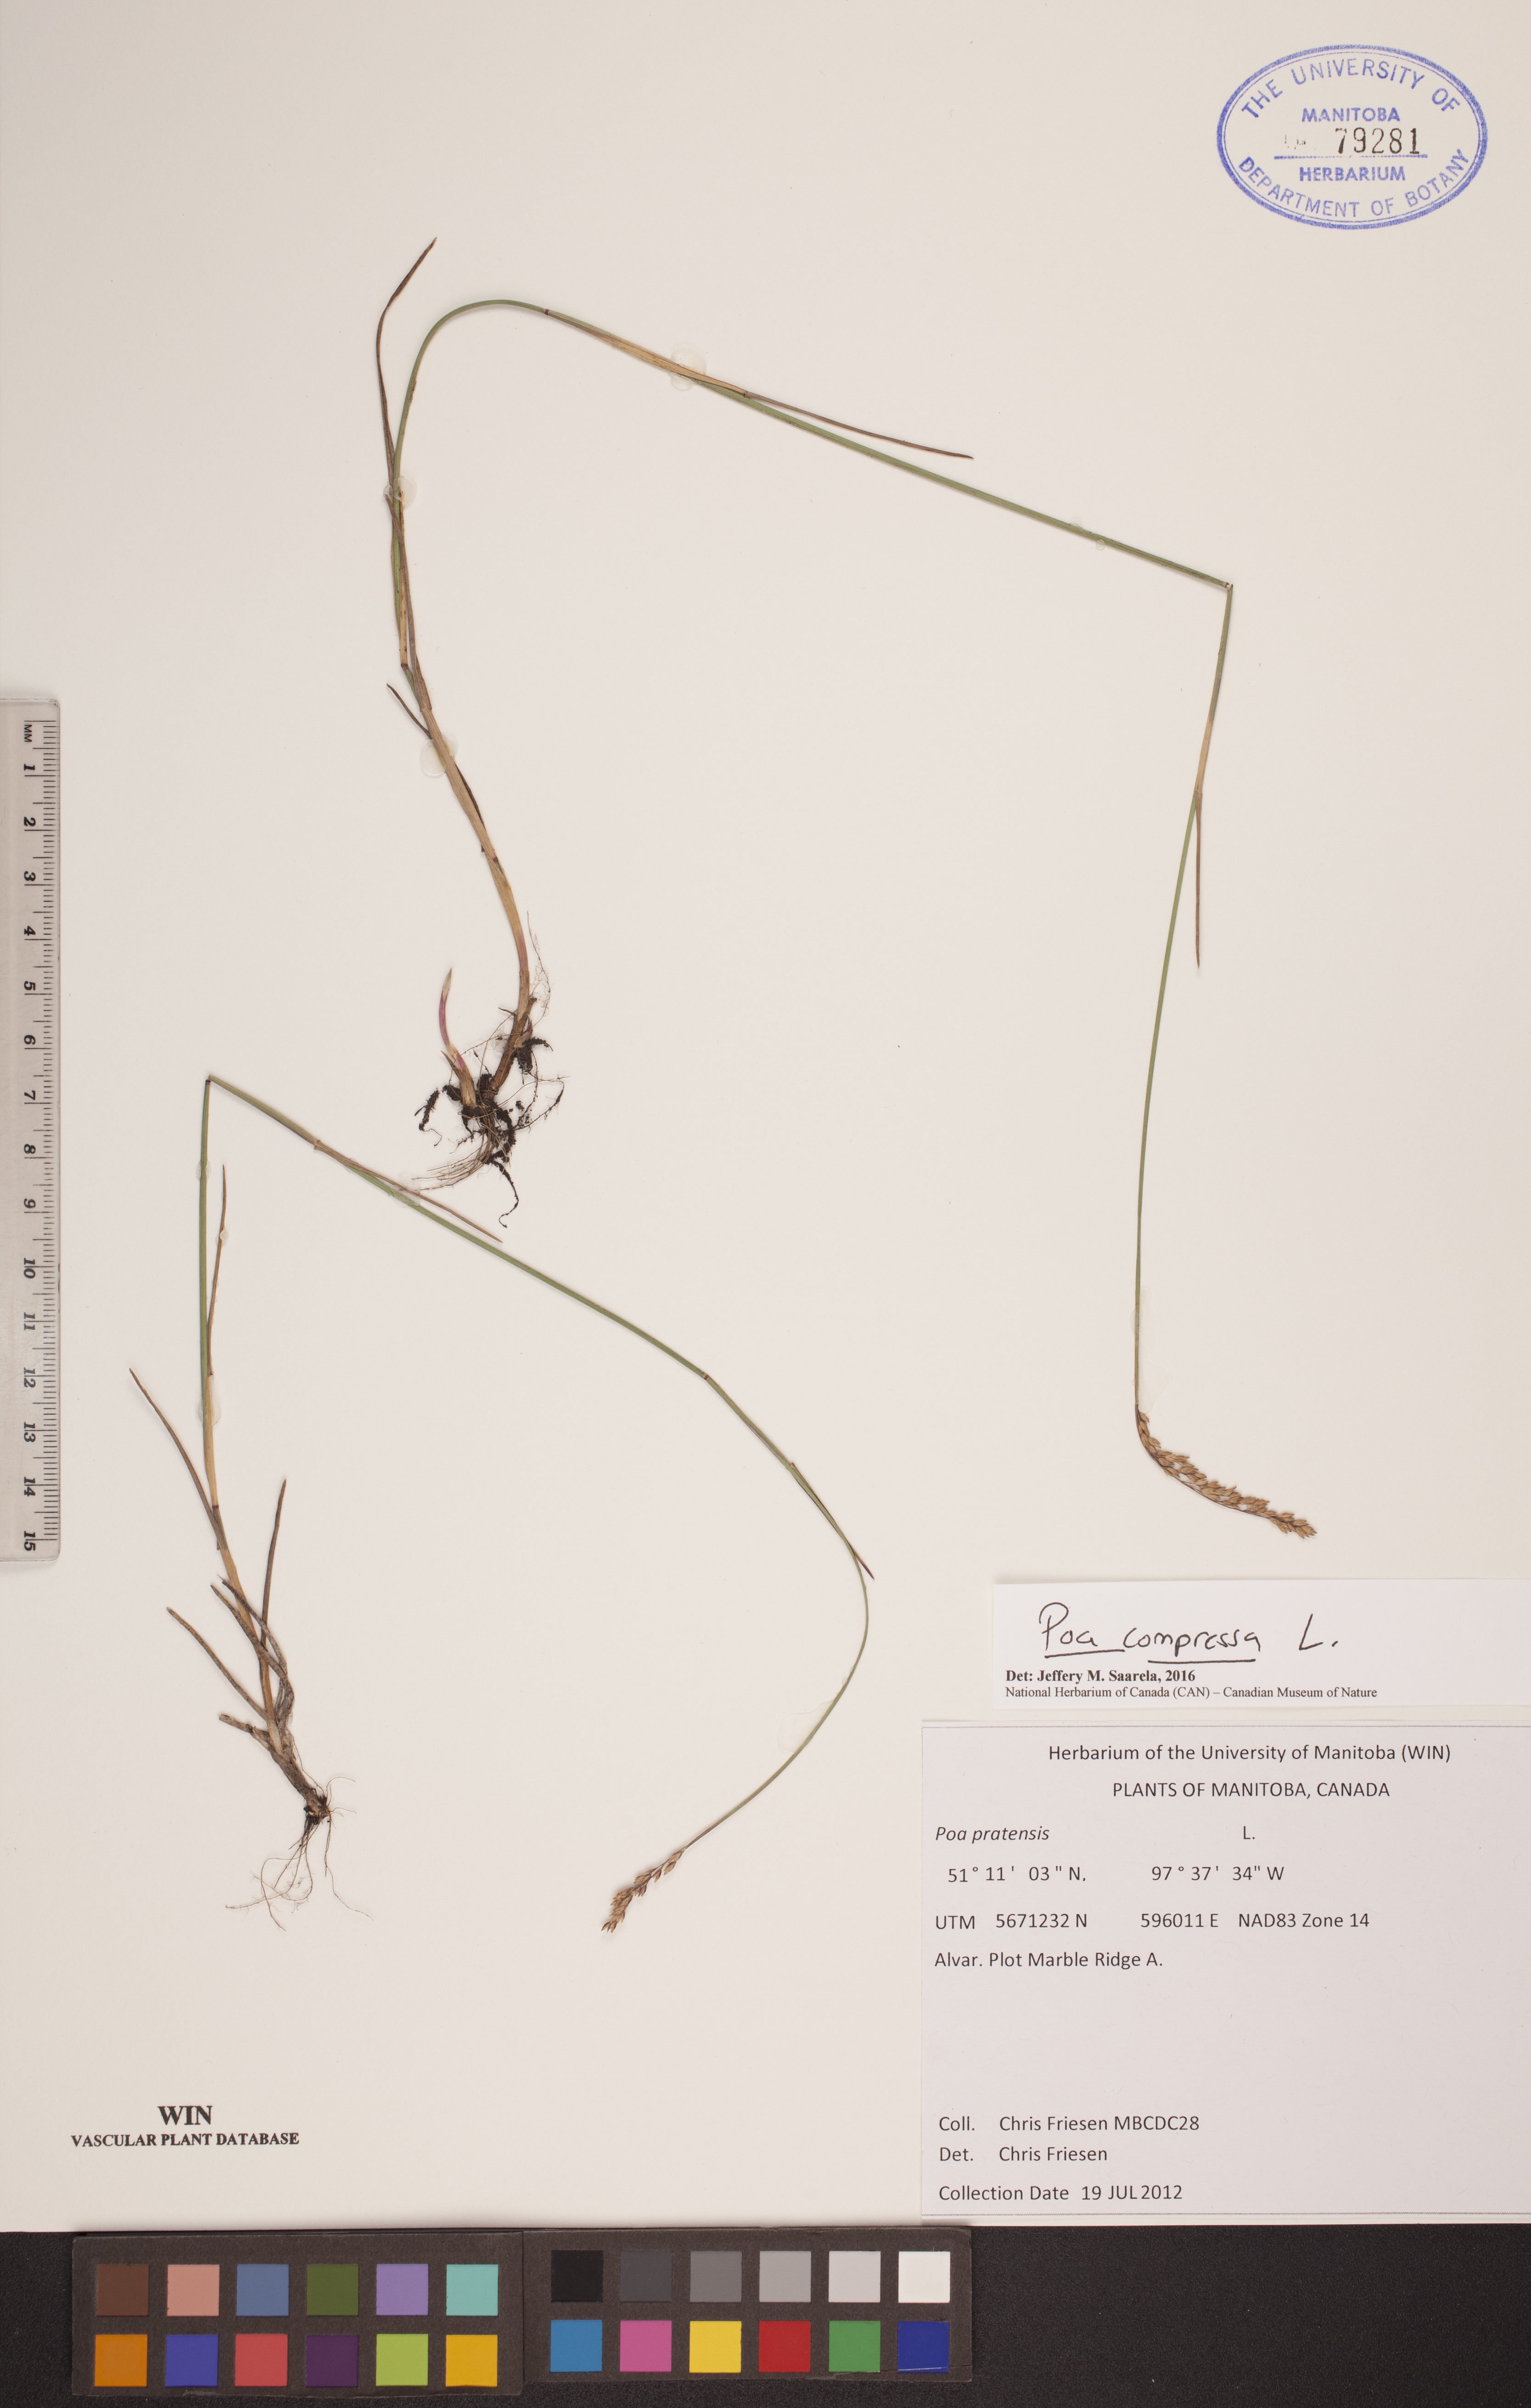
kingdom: Plantae
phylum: Tracheophyta
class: Liliopsida
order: Poales
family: Poaceae
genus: Poa
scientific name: Poa compressa
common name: Canada bluegrass
